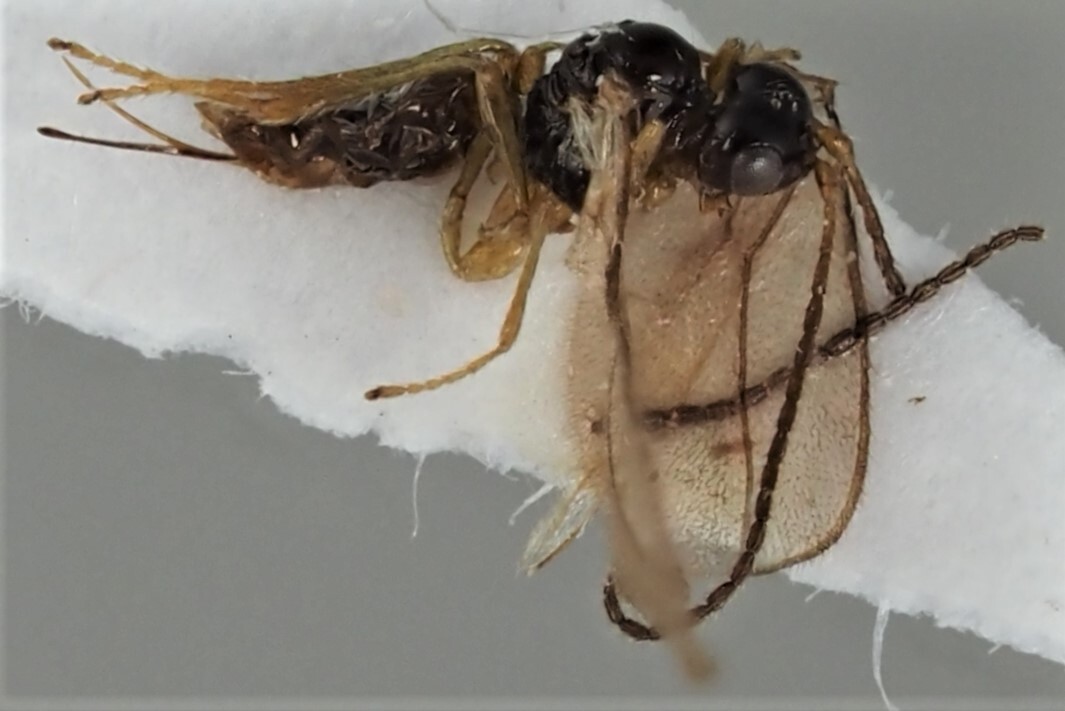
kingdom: Animalia
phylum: Arthropoda
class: Insecta
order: Hymenoptera
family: Braconidae
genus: Dinotrema
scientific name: Dinotrema intuendum
